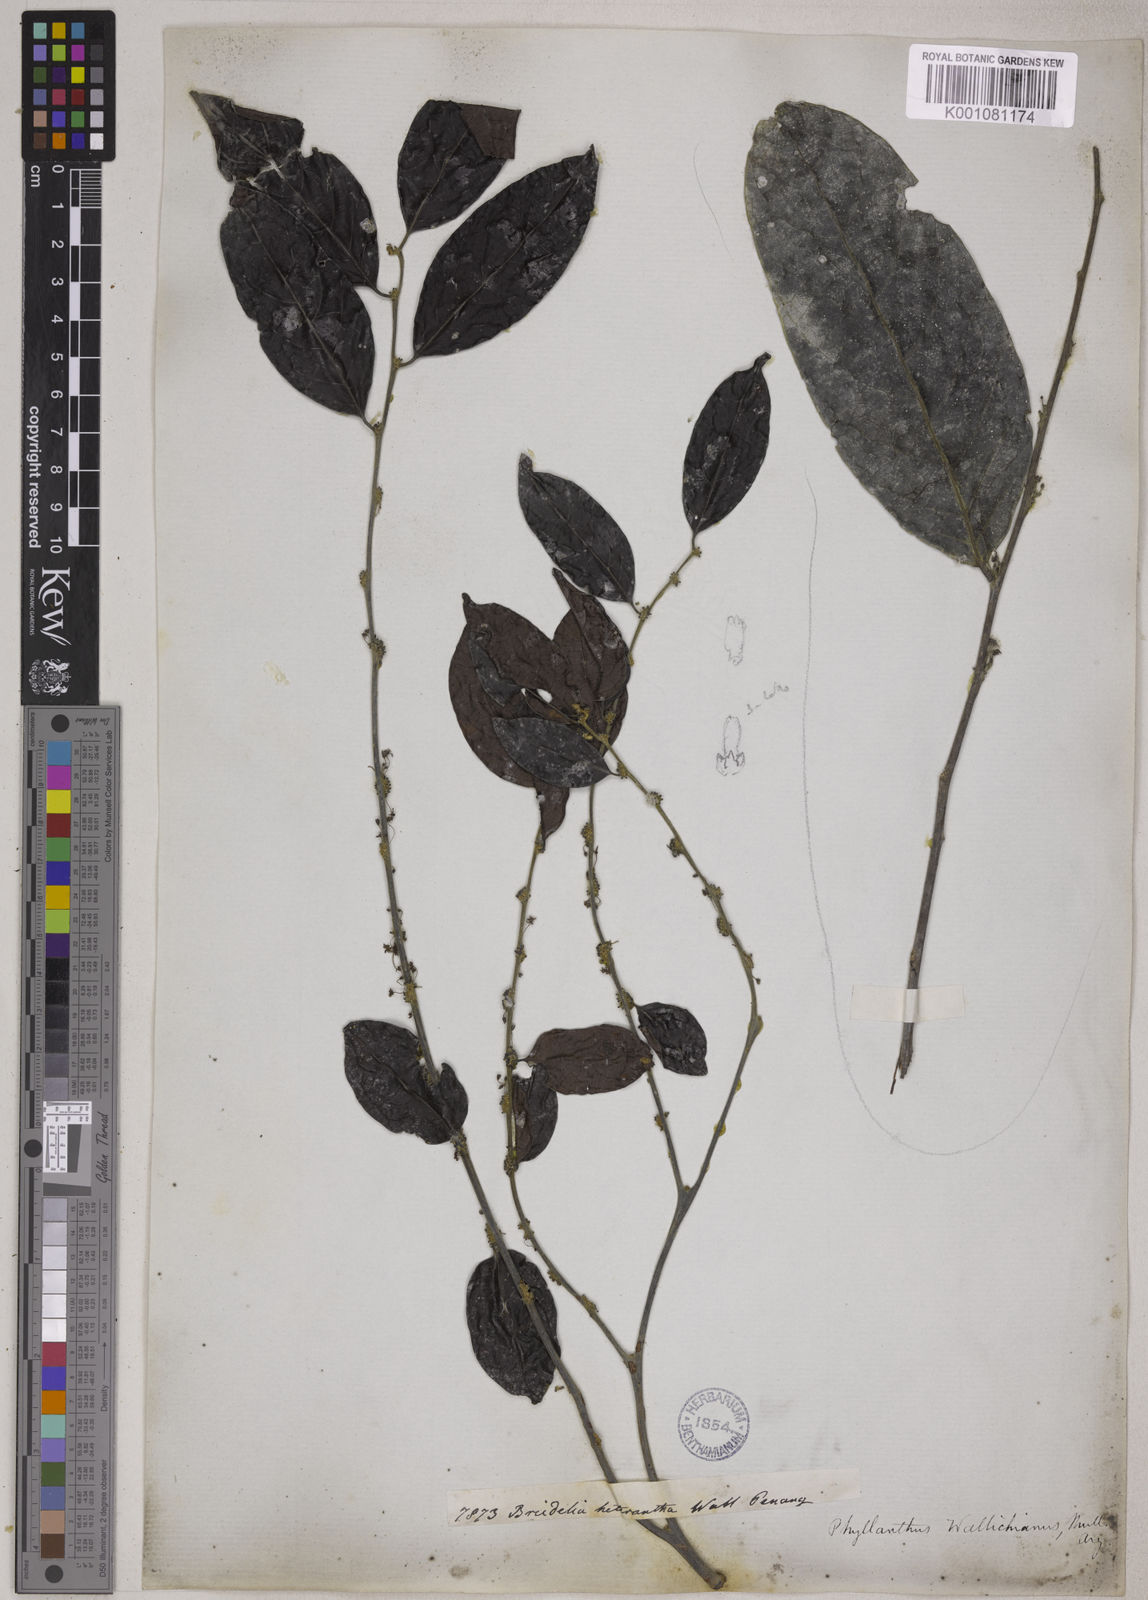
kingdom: Plantae
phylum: Tracheophyta
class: Magnoliopsida
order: Malpighiales
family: Phyllanthaceae
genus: Glochidion
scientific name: Glochidion glomerulatum
